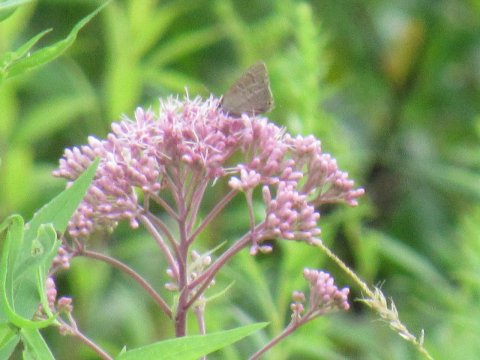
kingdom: Animalia
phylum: Arthropoda
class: Insecta
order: Lepidoptera
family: Lycaenidae
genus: Satyrium
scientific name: Satyrium
